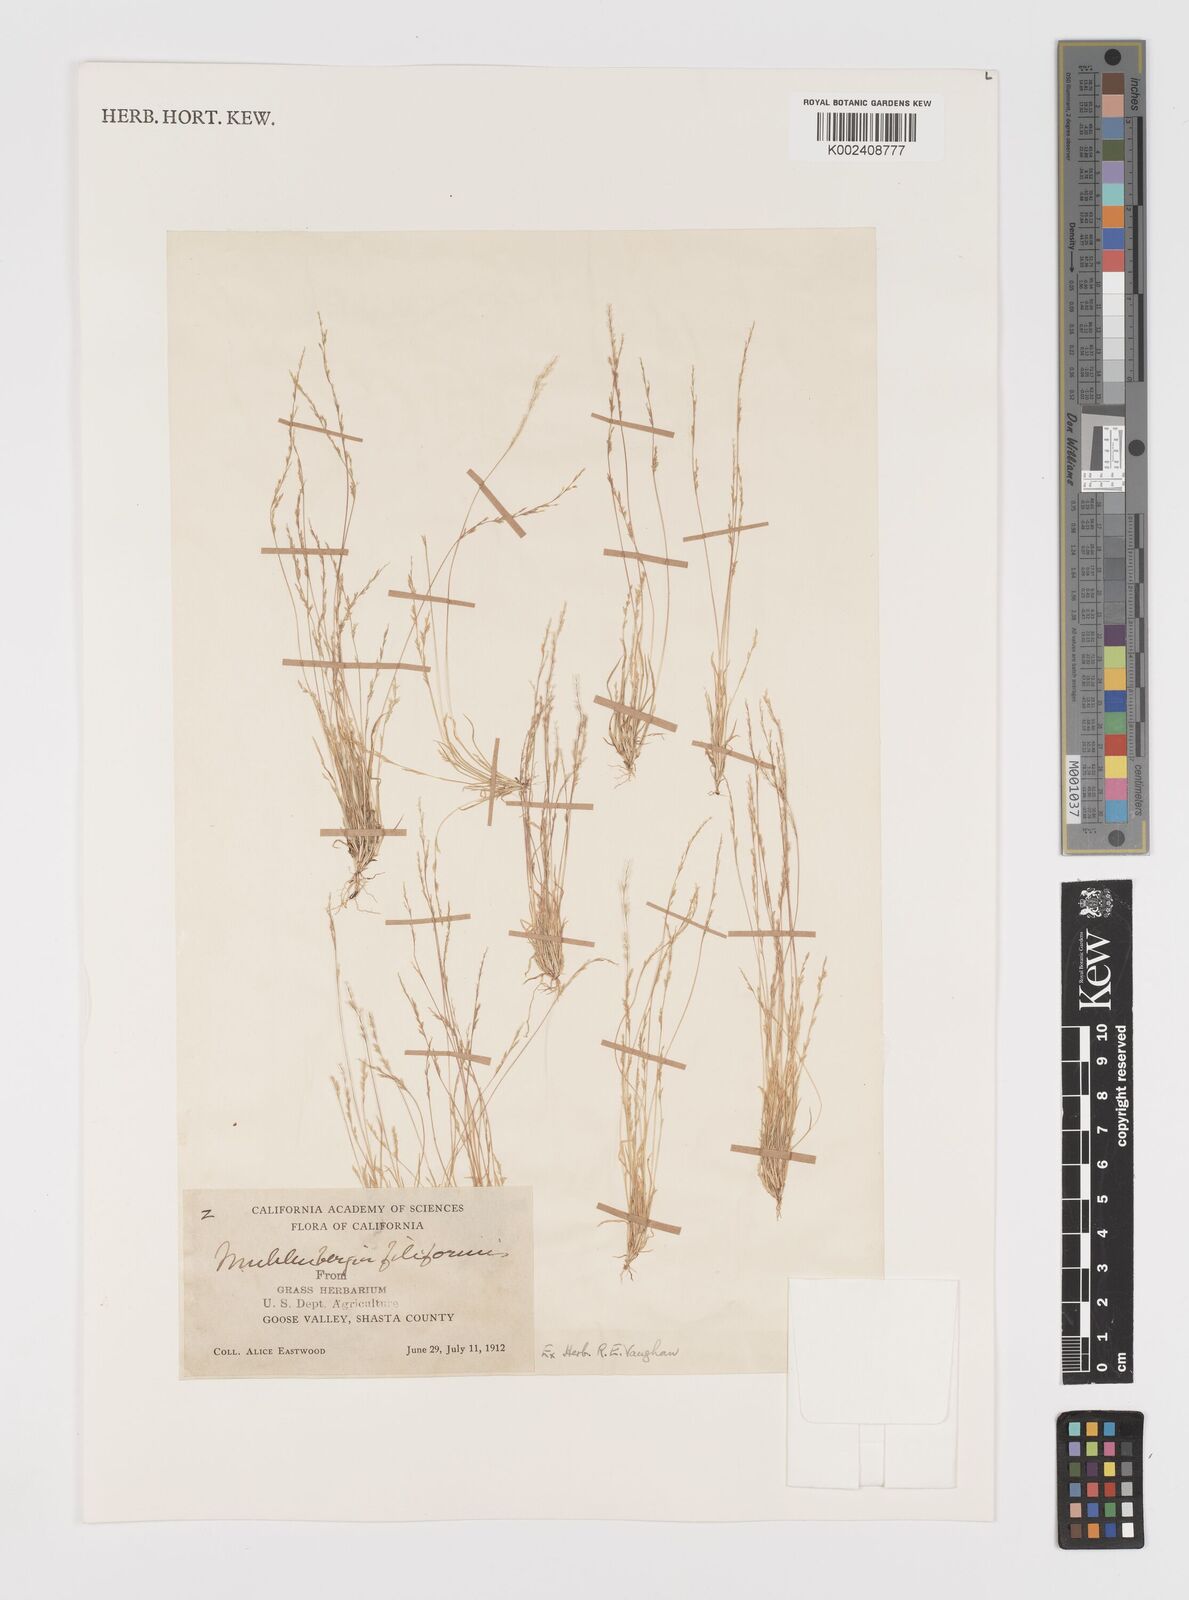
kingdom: Plantae
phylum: Tracheophyta
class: Liliopsida
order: Poales
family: Poaceae
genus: Leptochloa
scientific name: Leptochloa mucronata
